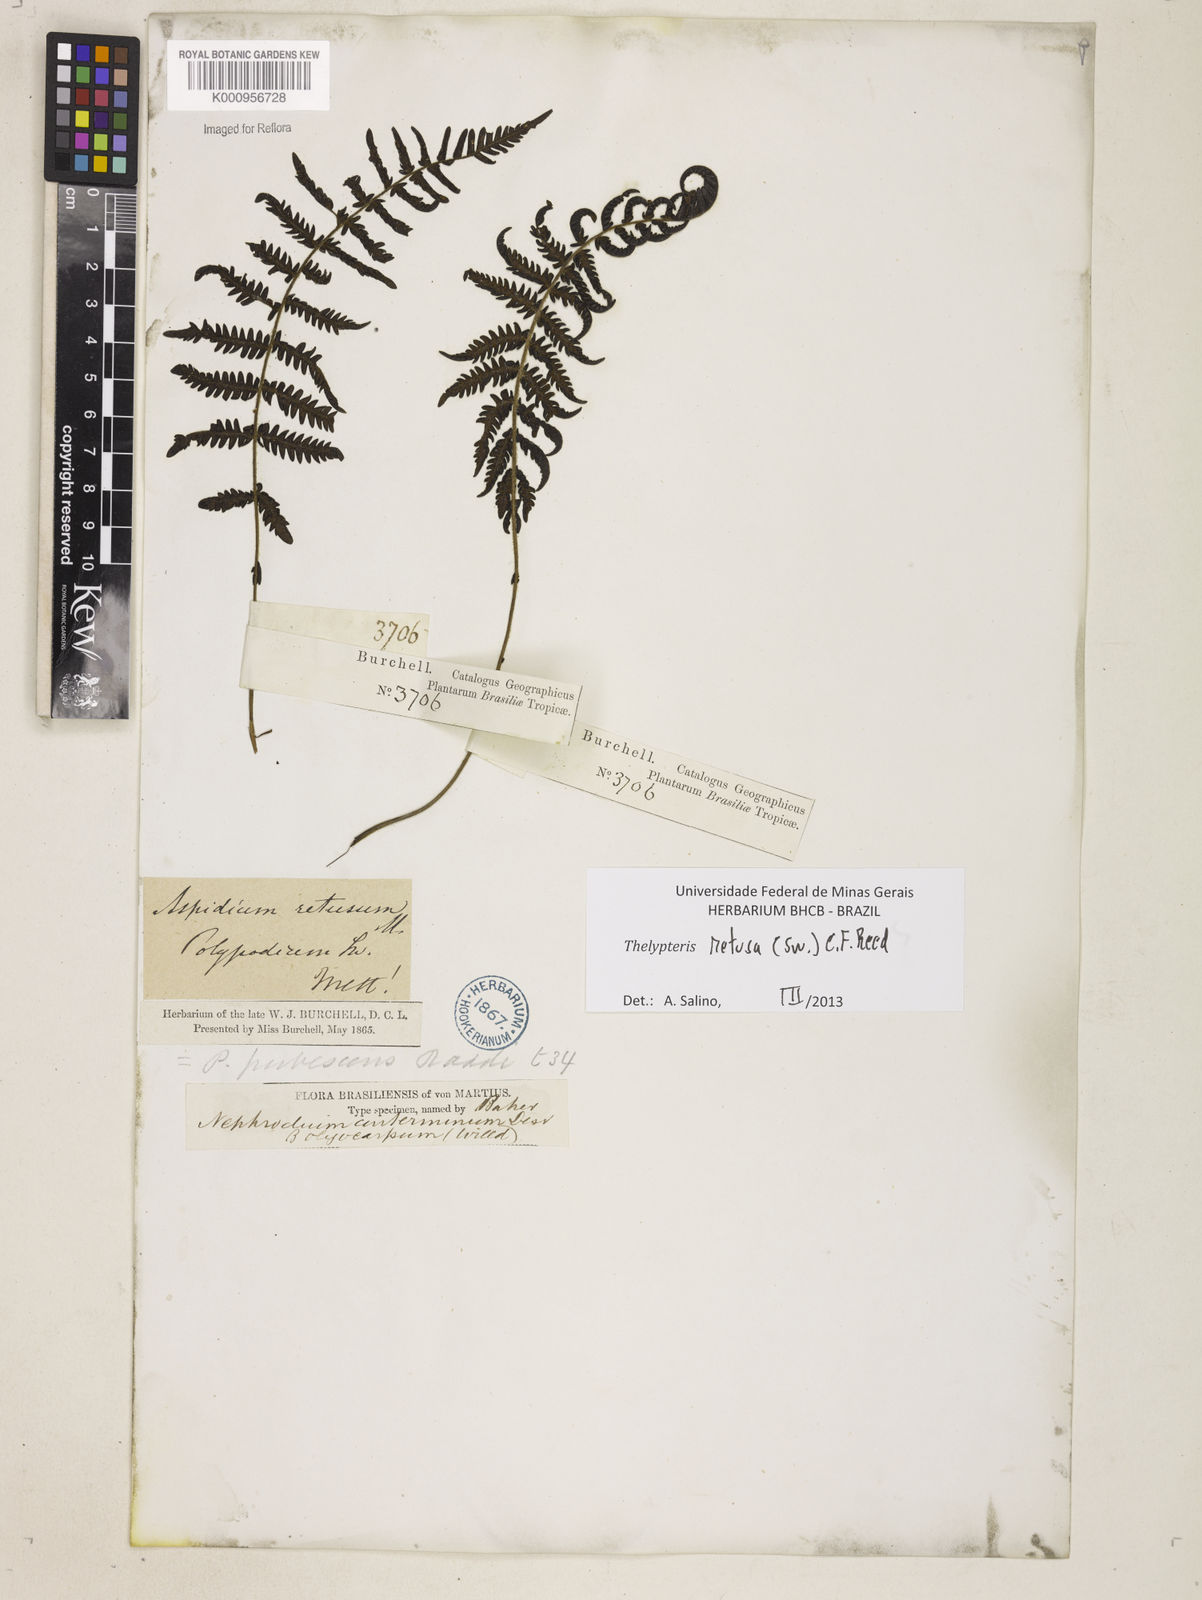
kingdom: Plantae
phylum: Tracheophyta
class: Polypodiopsida
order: Polypodiales
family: Thelypteridaceae
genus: Amauropelta
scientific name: Amauropelta retusa
